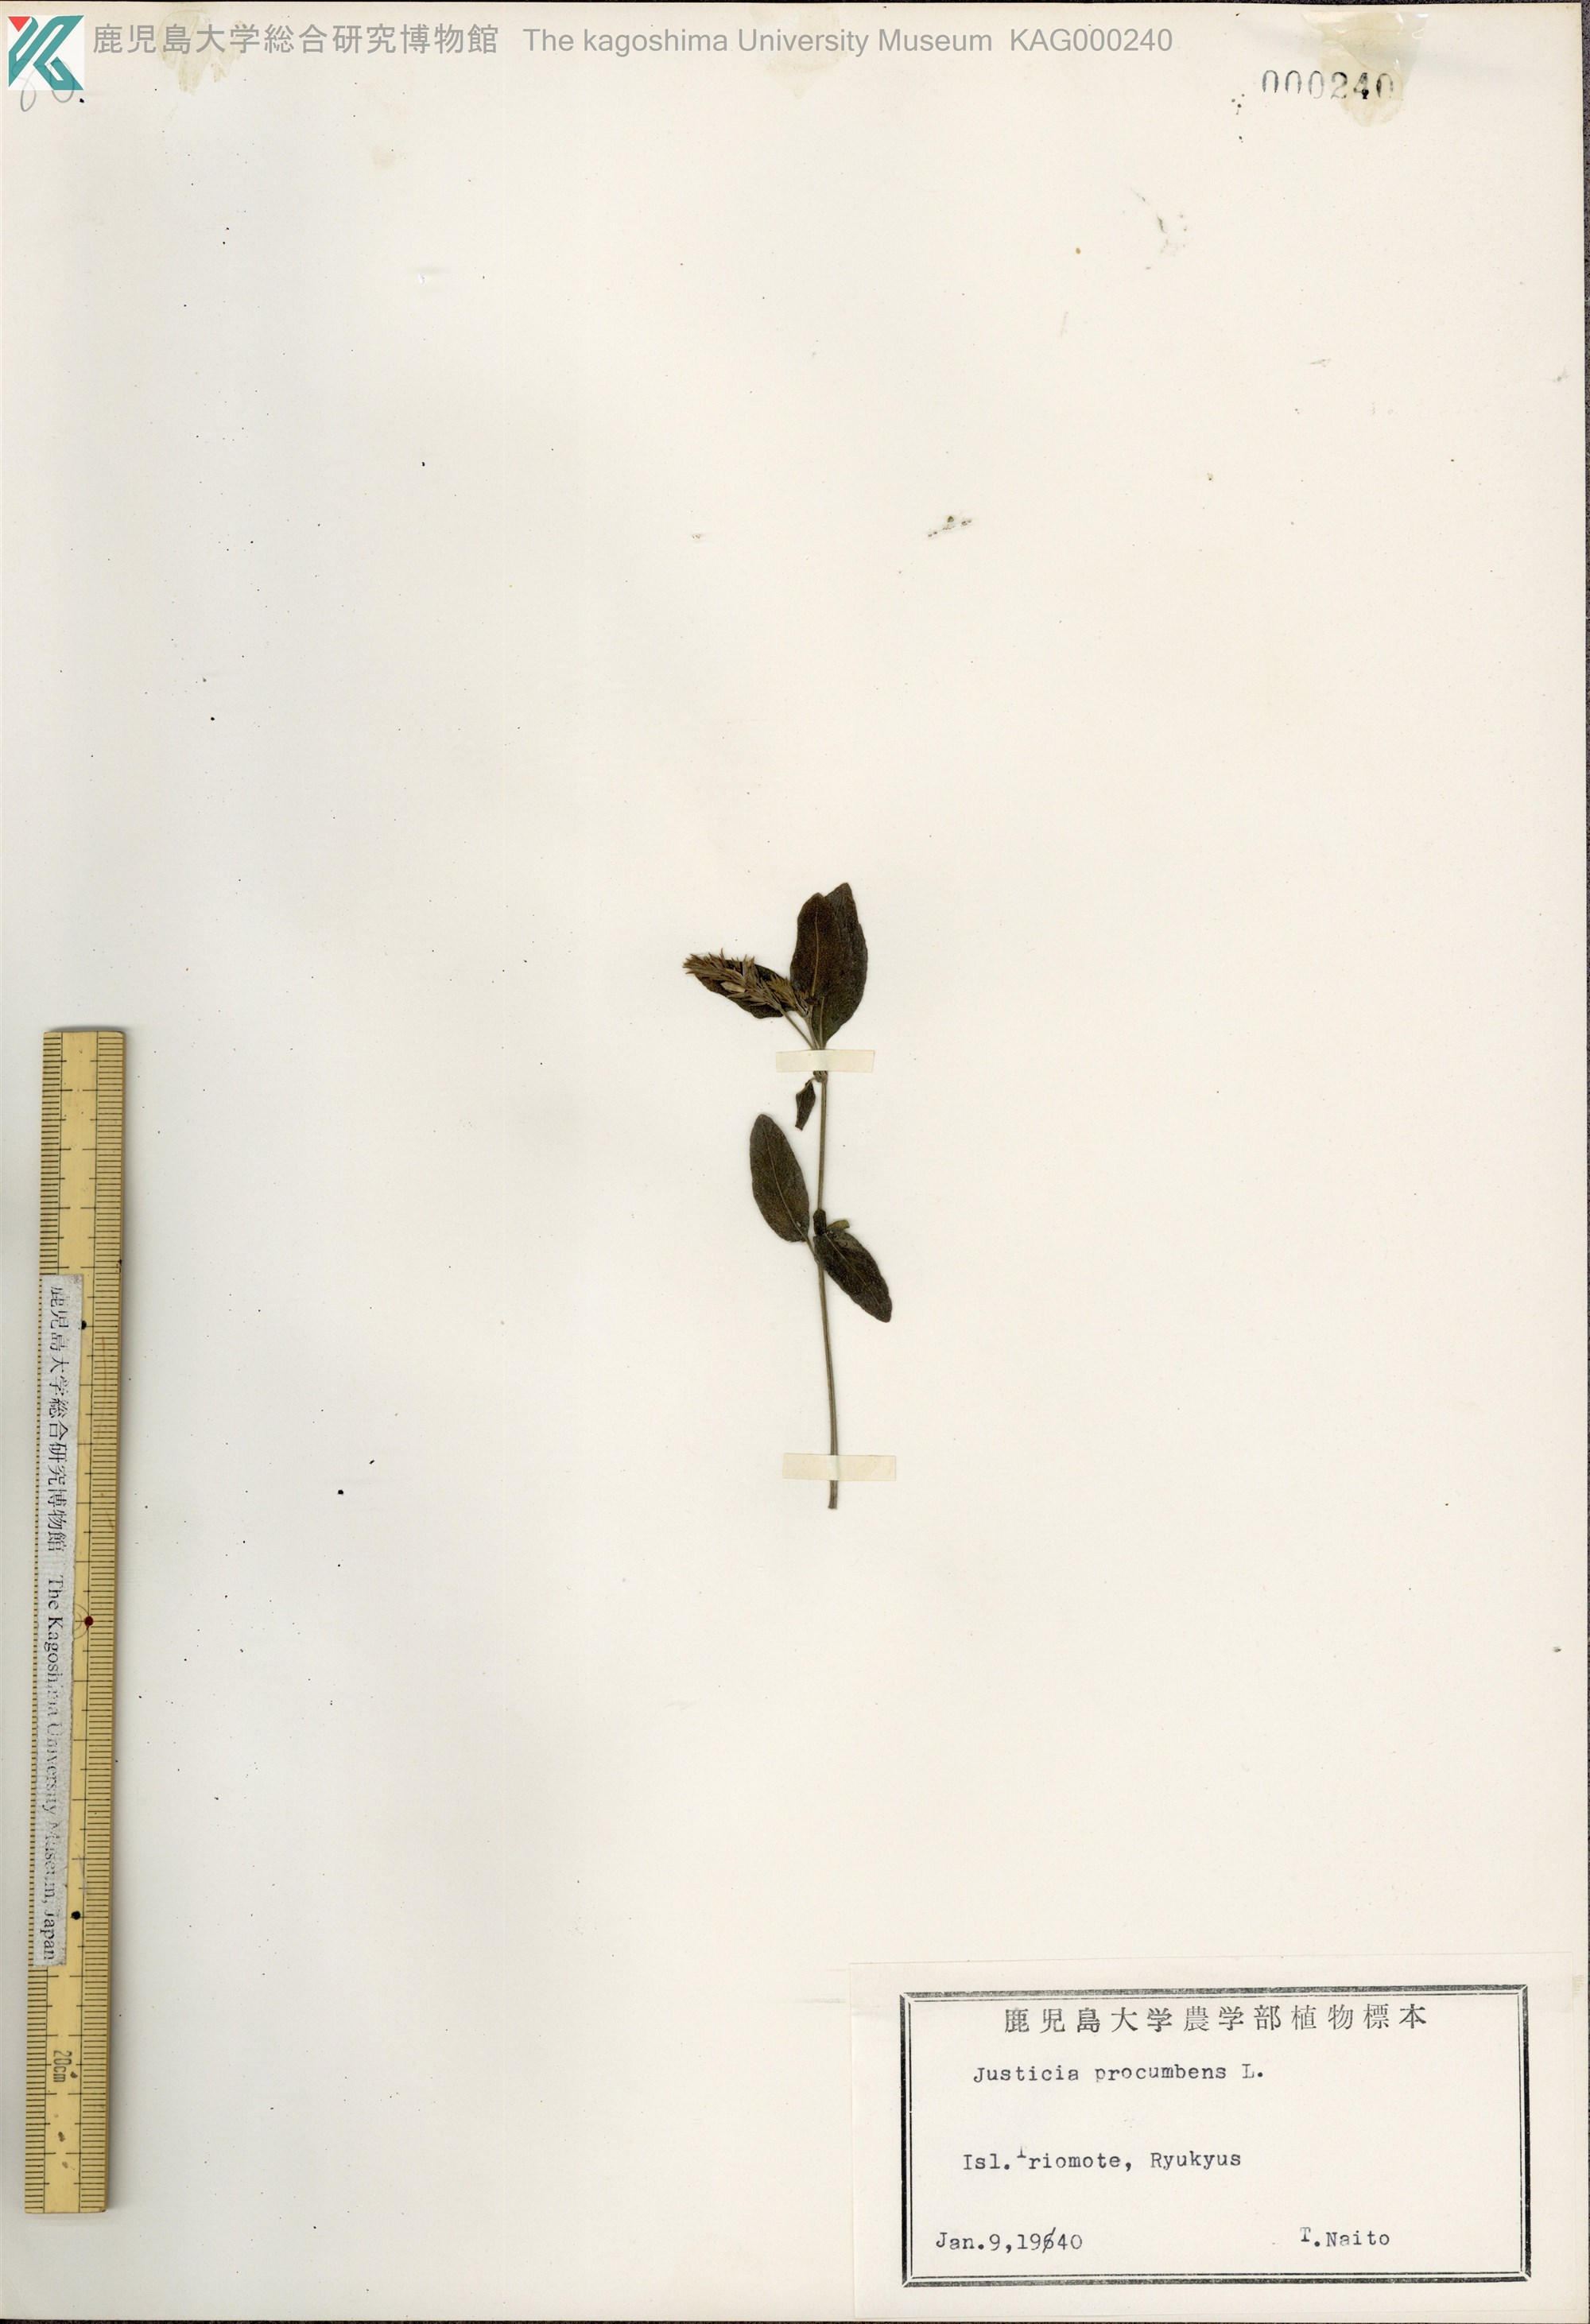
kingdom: Plantae
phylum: Tracheophyta
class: Magnoliopsida
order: Lamiales
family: Acanthaceae
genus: Rostellularia
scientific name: Rostellularia procumbens
